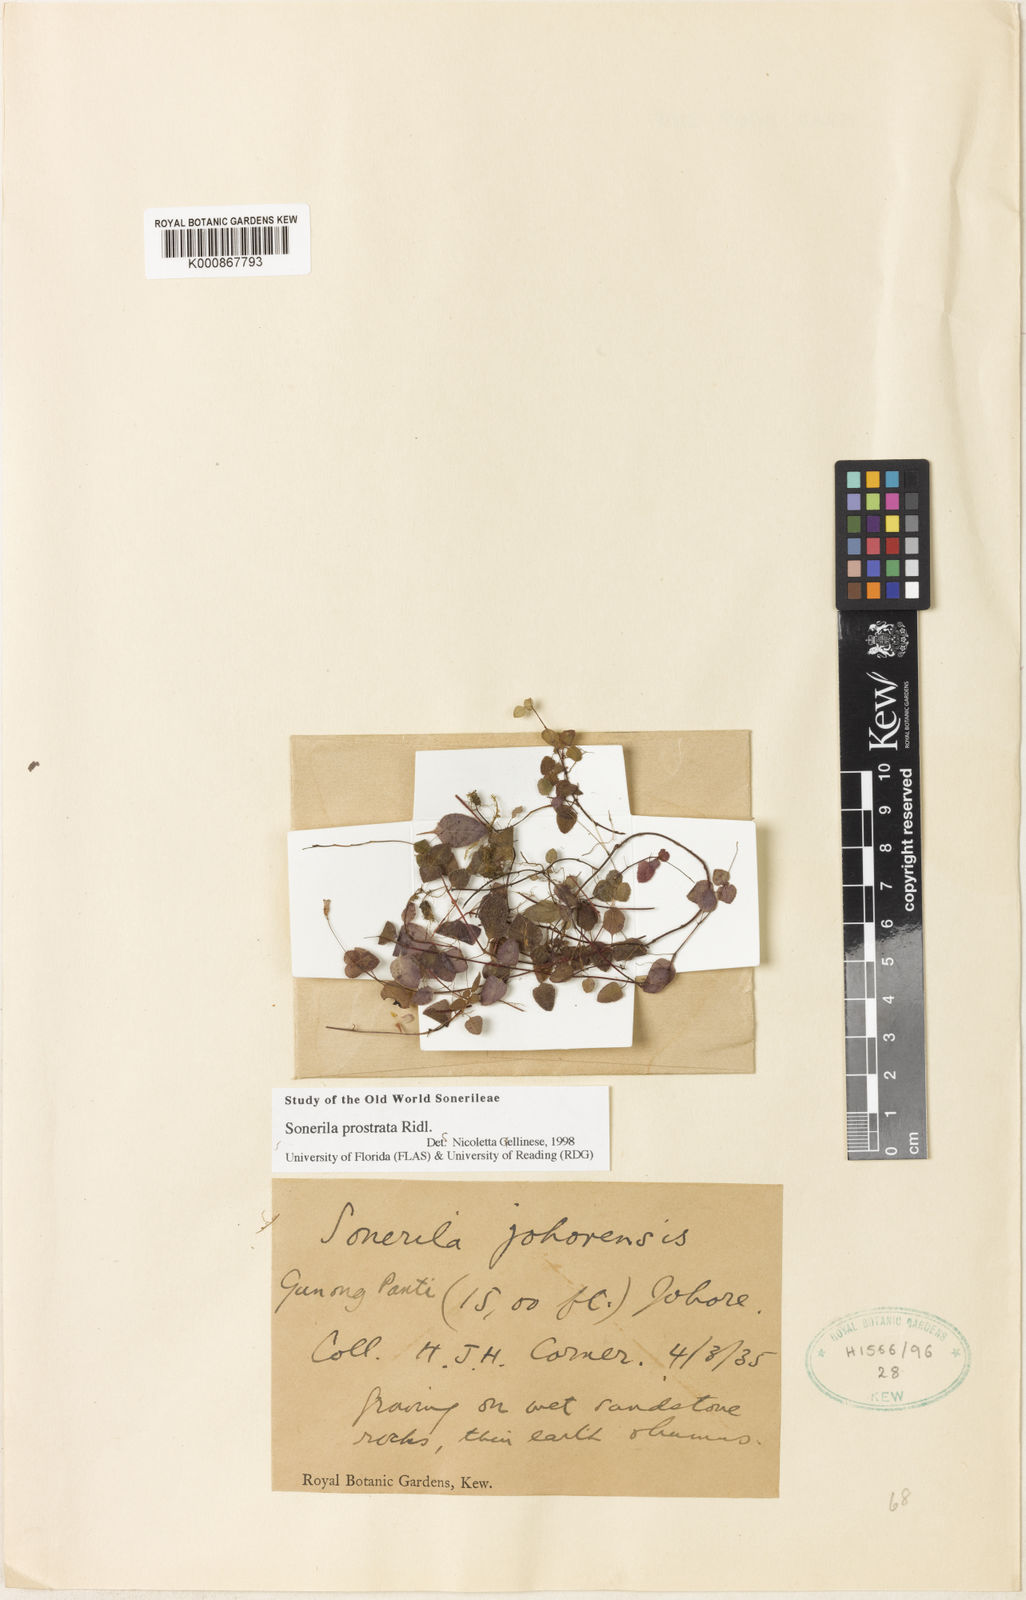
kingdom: Plantae
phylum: Tracheophyta
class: Magnoliopsida
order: Myrtales
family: Melastomataceae
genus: Sonerila
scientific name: Sonerila prostrata
